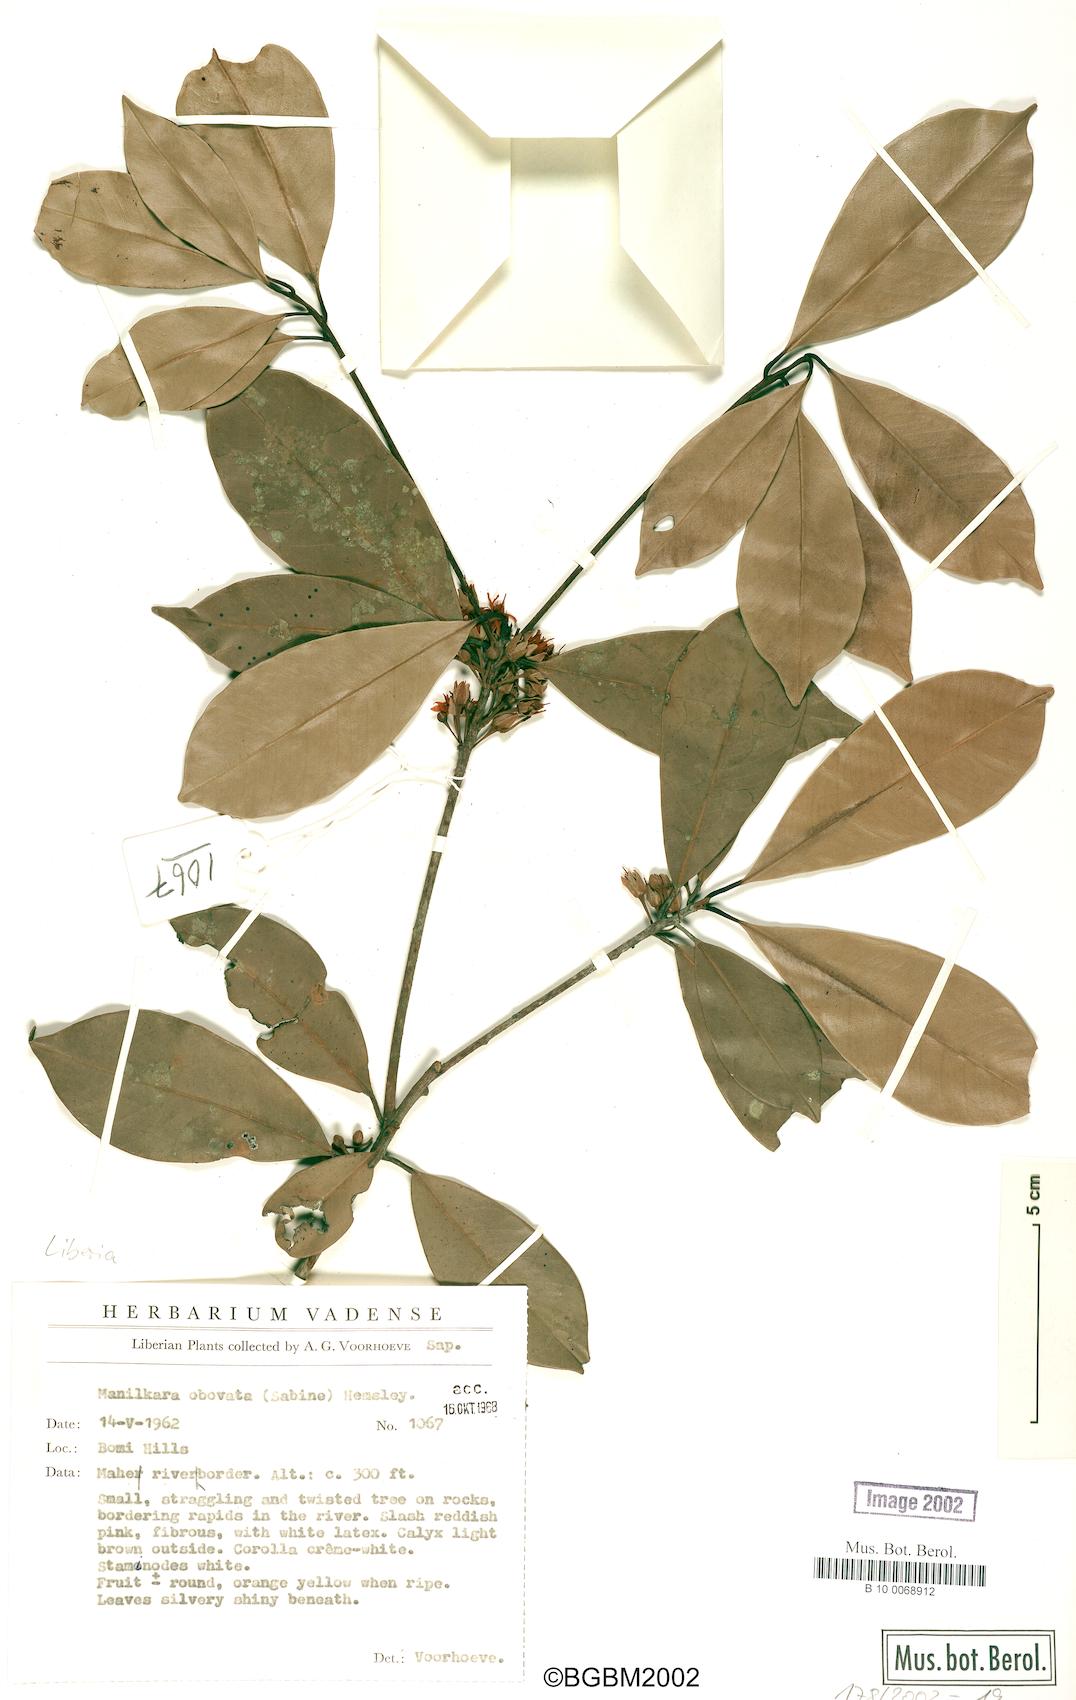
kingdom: Plantae
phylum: Tracheophyta
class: Magnoliopsida
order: Ericales
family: Sapotaceae
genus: Manilkara
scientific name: Manilkara obovata
